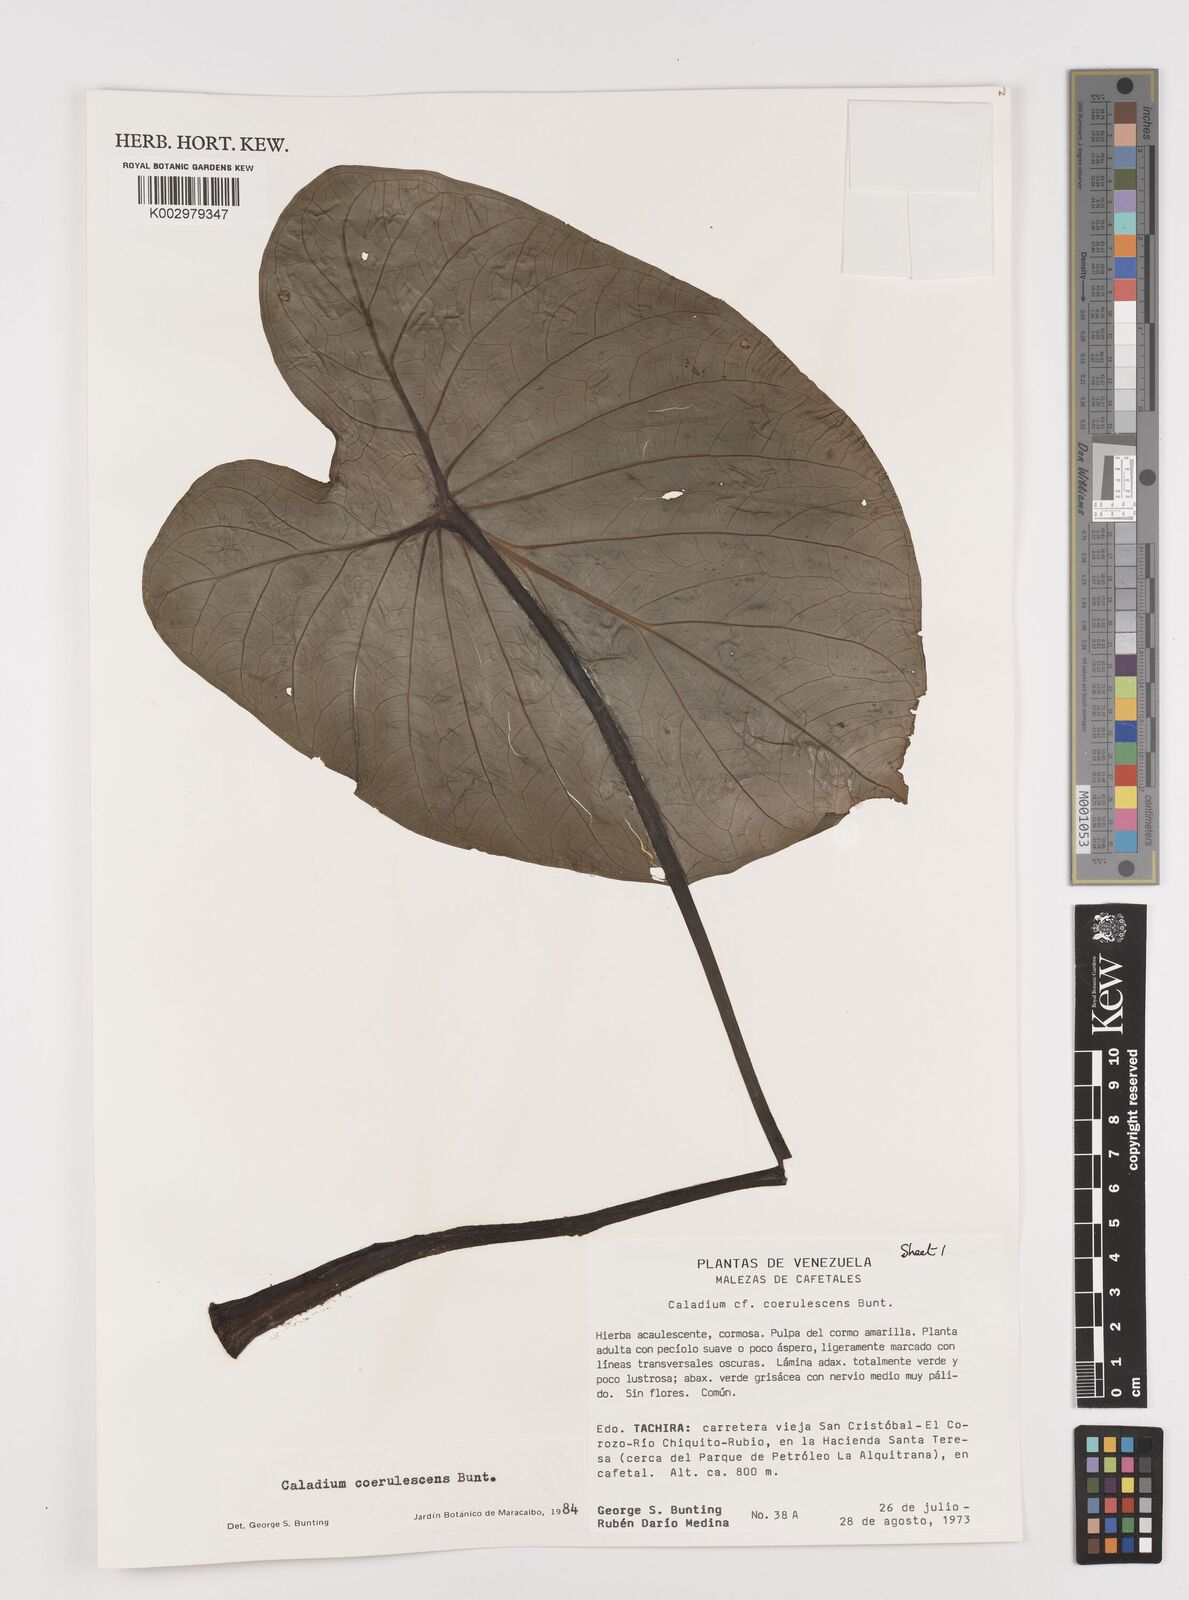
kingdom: Plantae
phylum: Tracheophyta
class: Liliopsida
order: Alismatales
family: Araceae
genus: Caladium
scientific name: Caladium coerulescens
